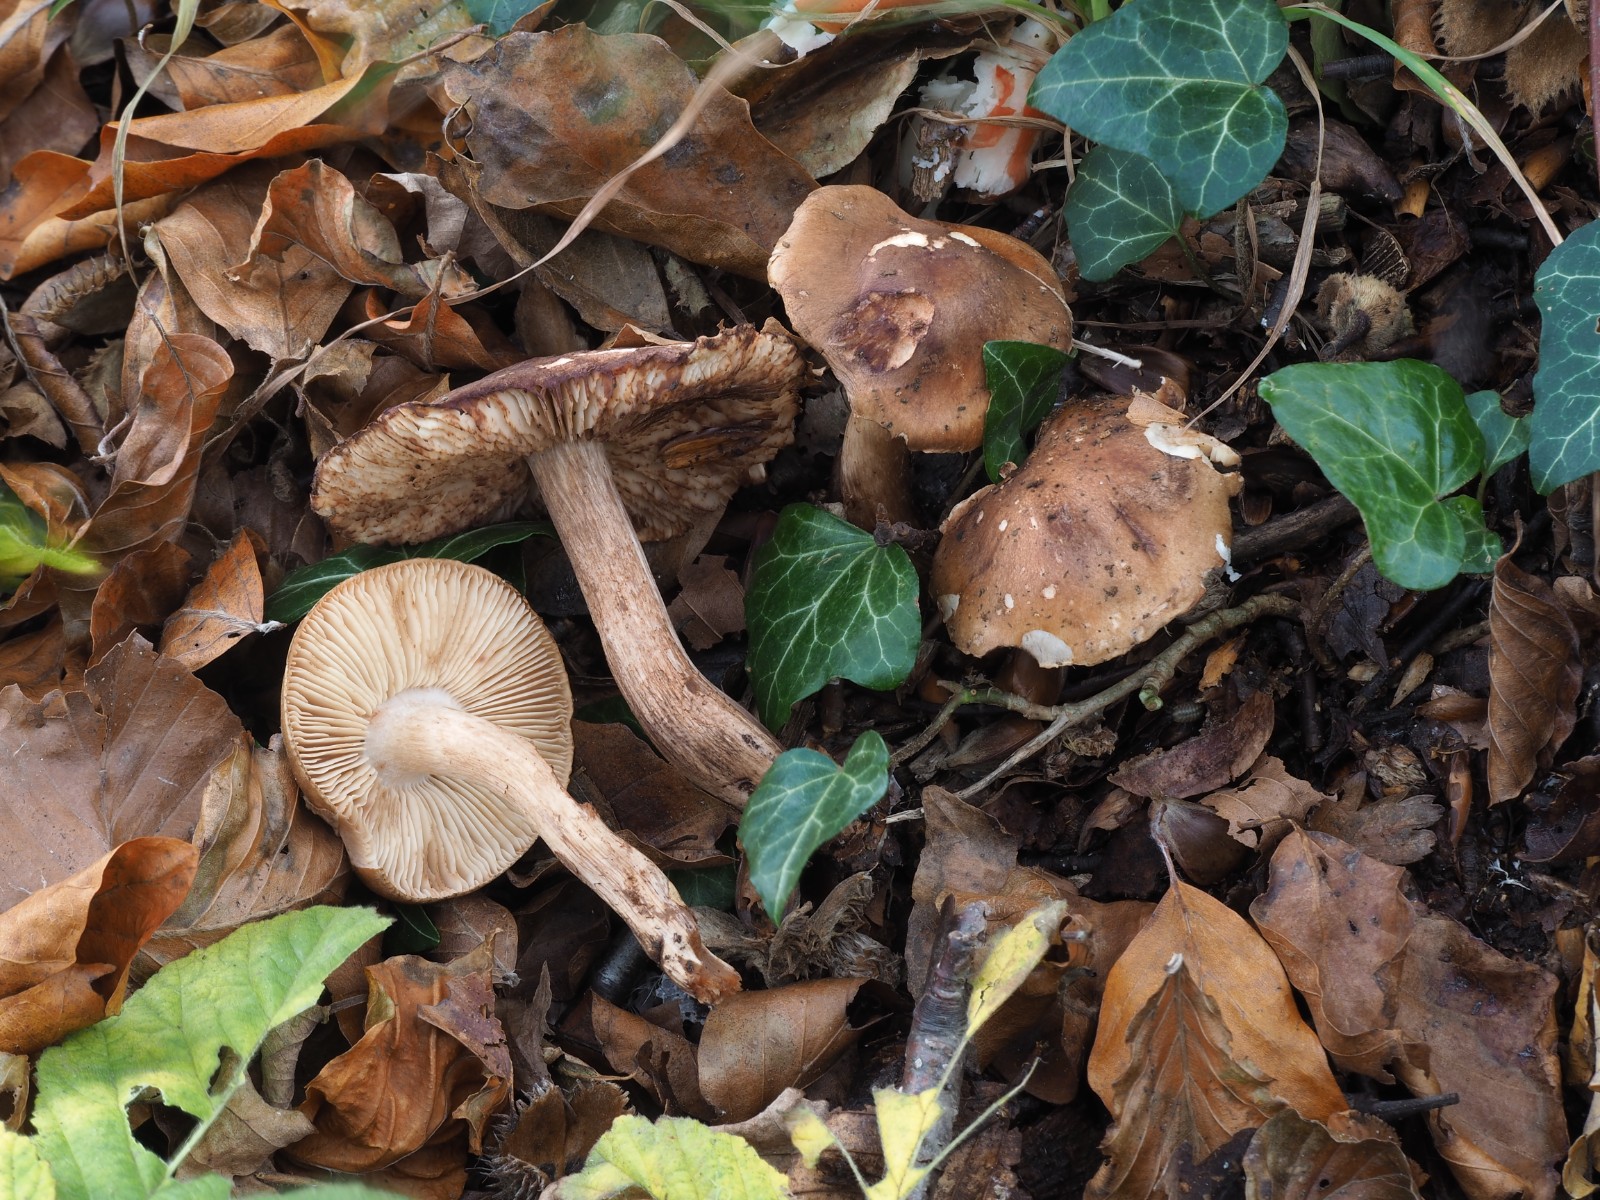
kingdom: Fungi
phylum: Basidiomycota
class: Agaricomycetes
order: Agaricales
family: Tricholomataceae
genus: Tricholoma
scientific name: Tricholoma ustale
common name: sveden ridderhat
